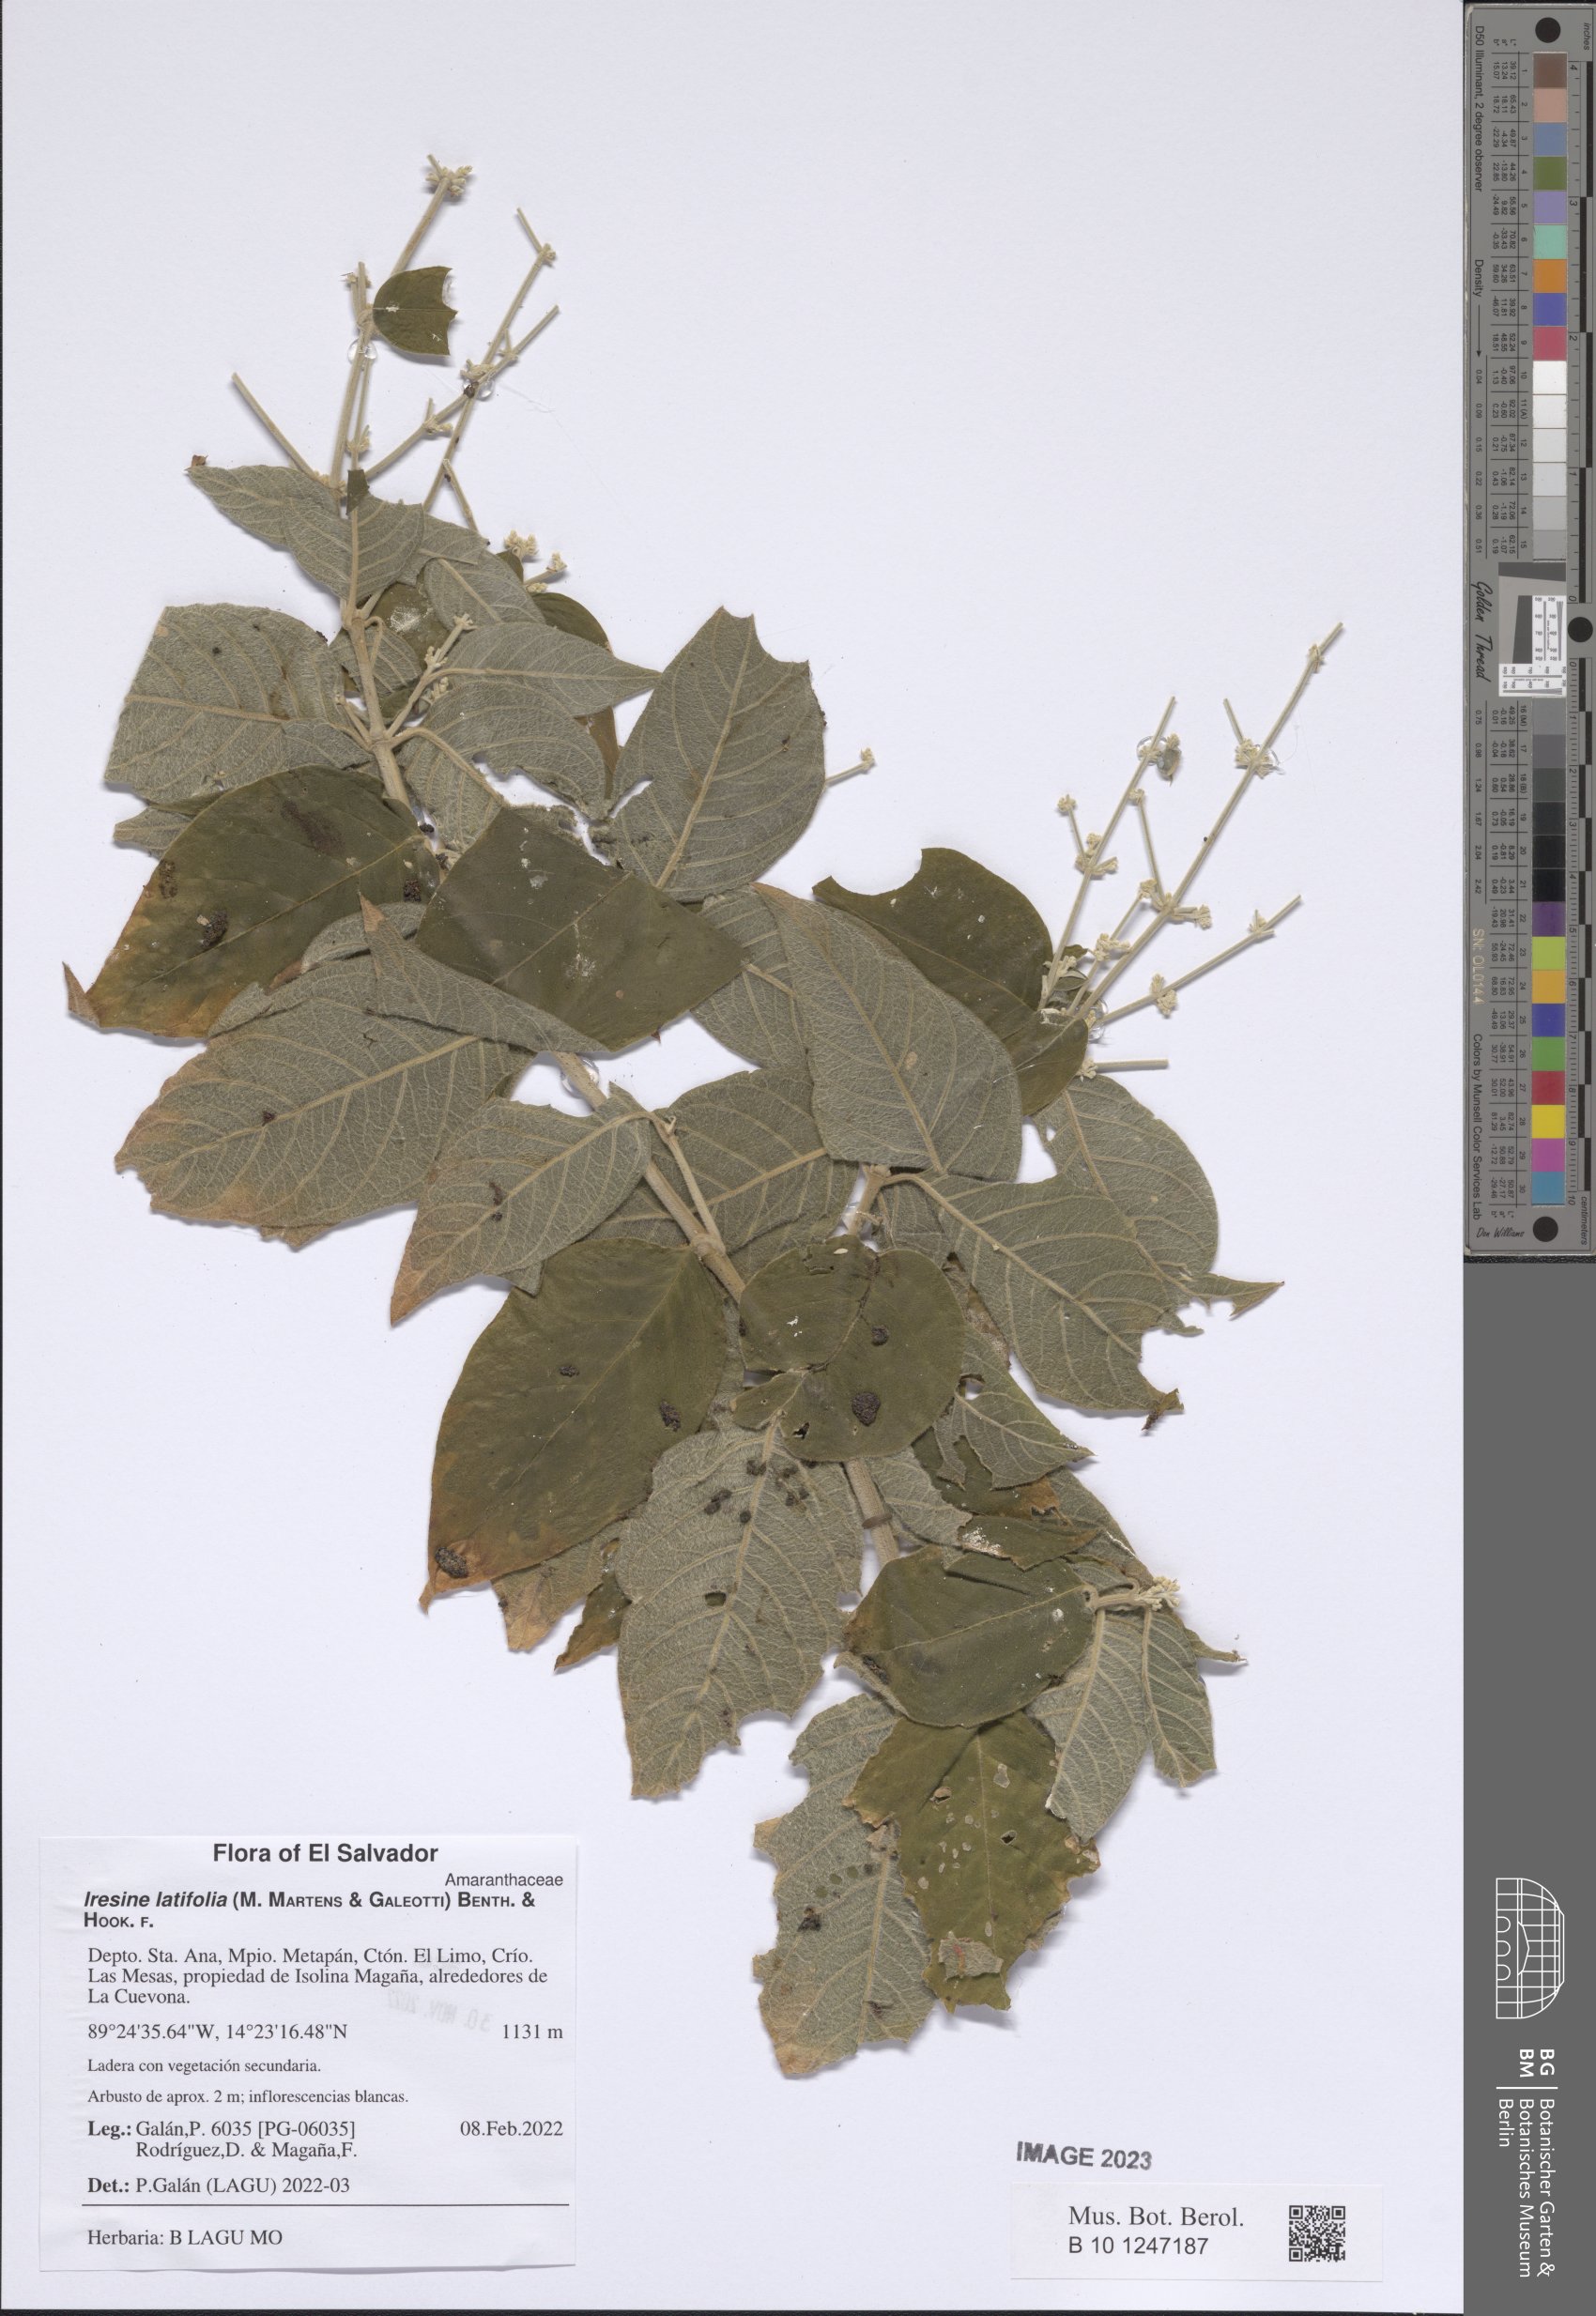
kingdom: Plantae
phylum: Tracheophyta
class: Magnoliopsida
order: Caryophyllales
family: Amaranthaceae
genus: Iresine
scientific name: Iresine latifolia
